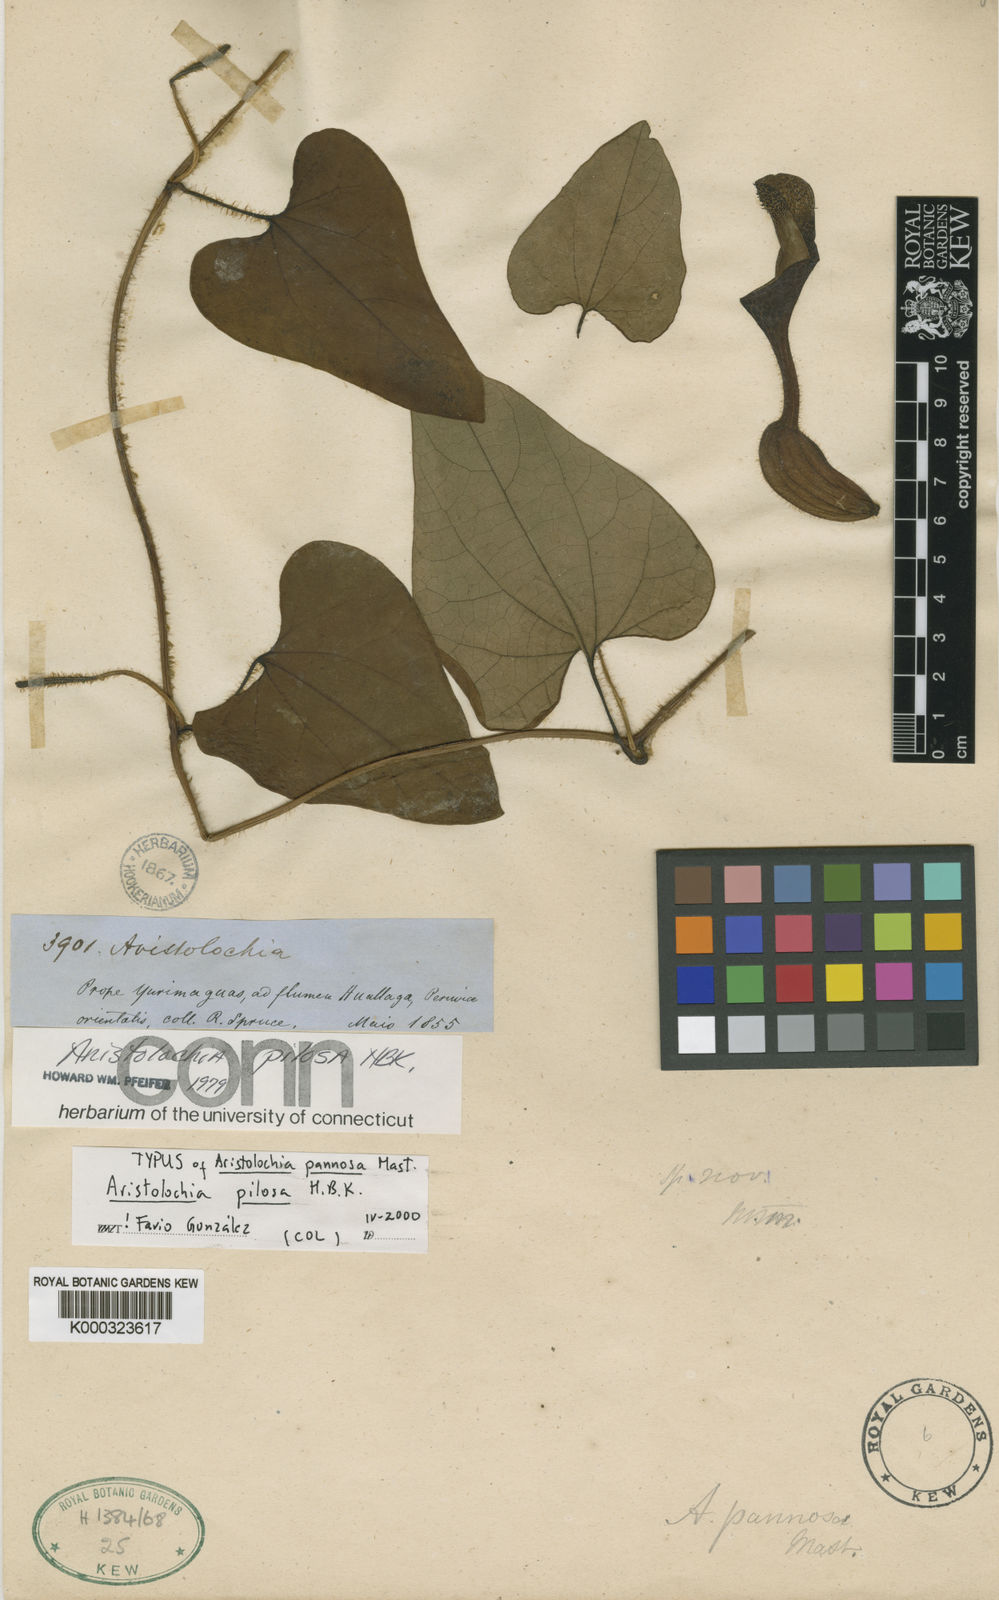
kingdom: Plantae
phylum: Tracheophyta
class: Magnoliopsida
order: Piperales
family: Aristolochiaceae
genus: Aristolochia
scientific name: Aristolochia
